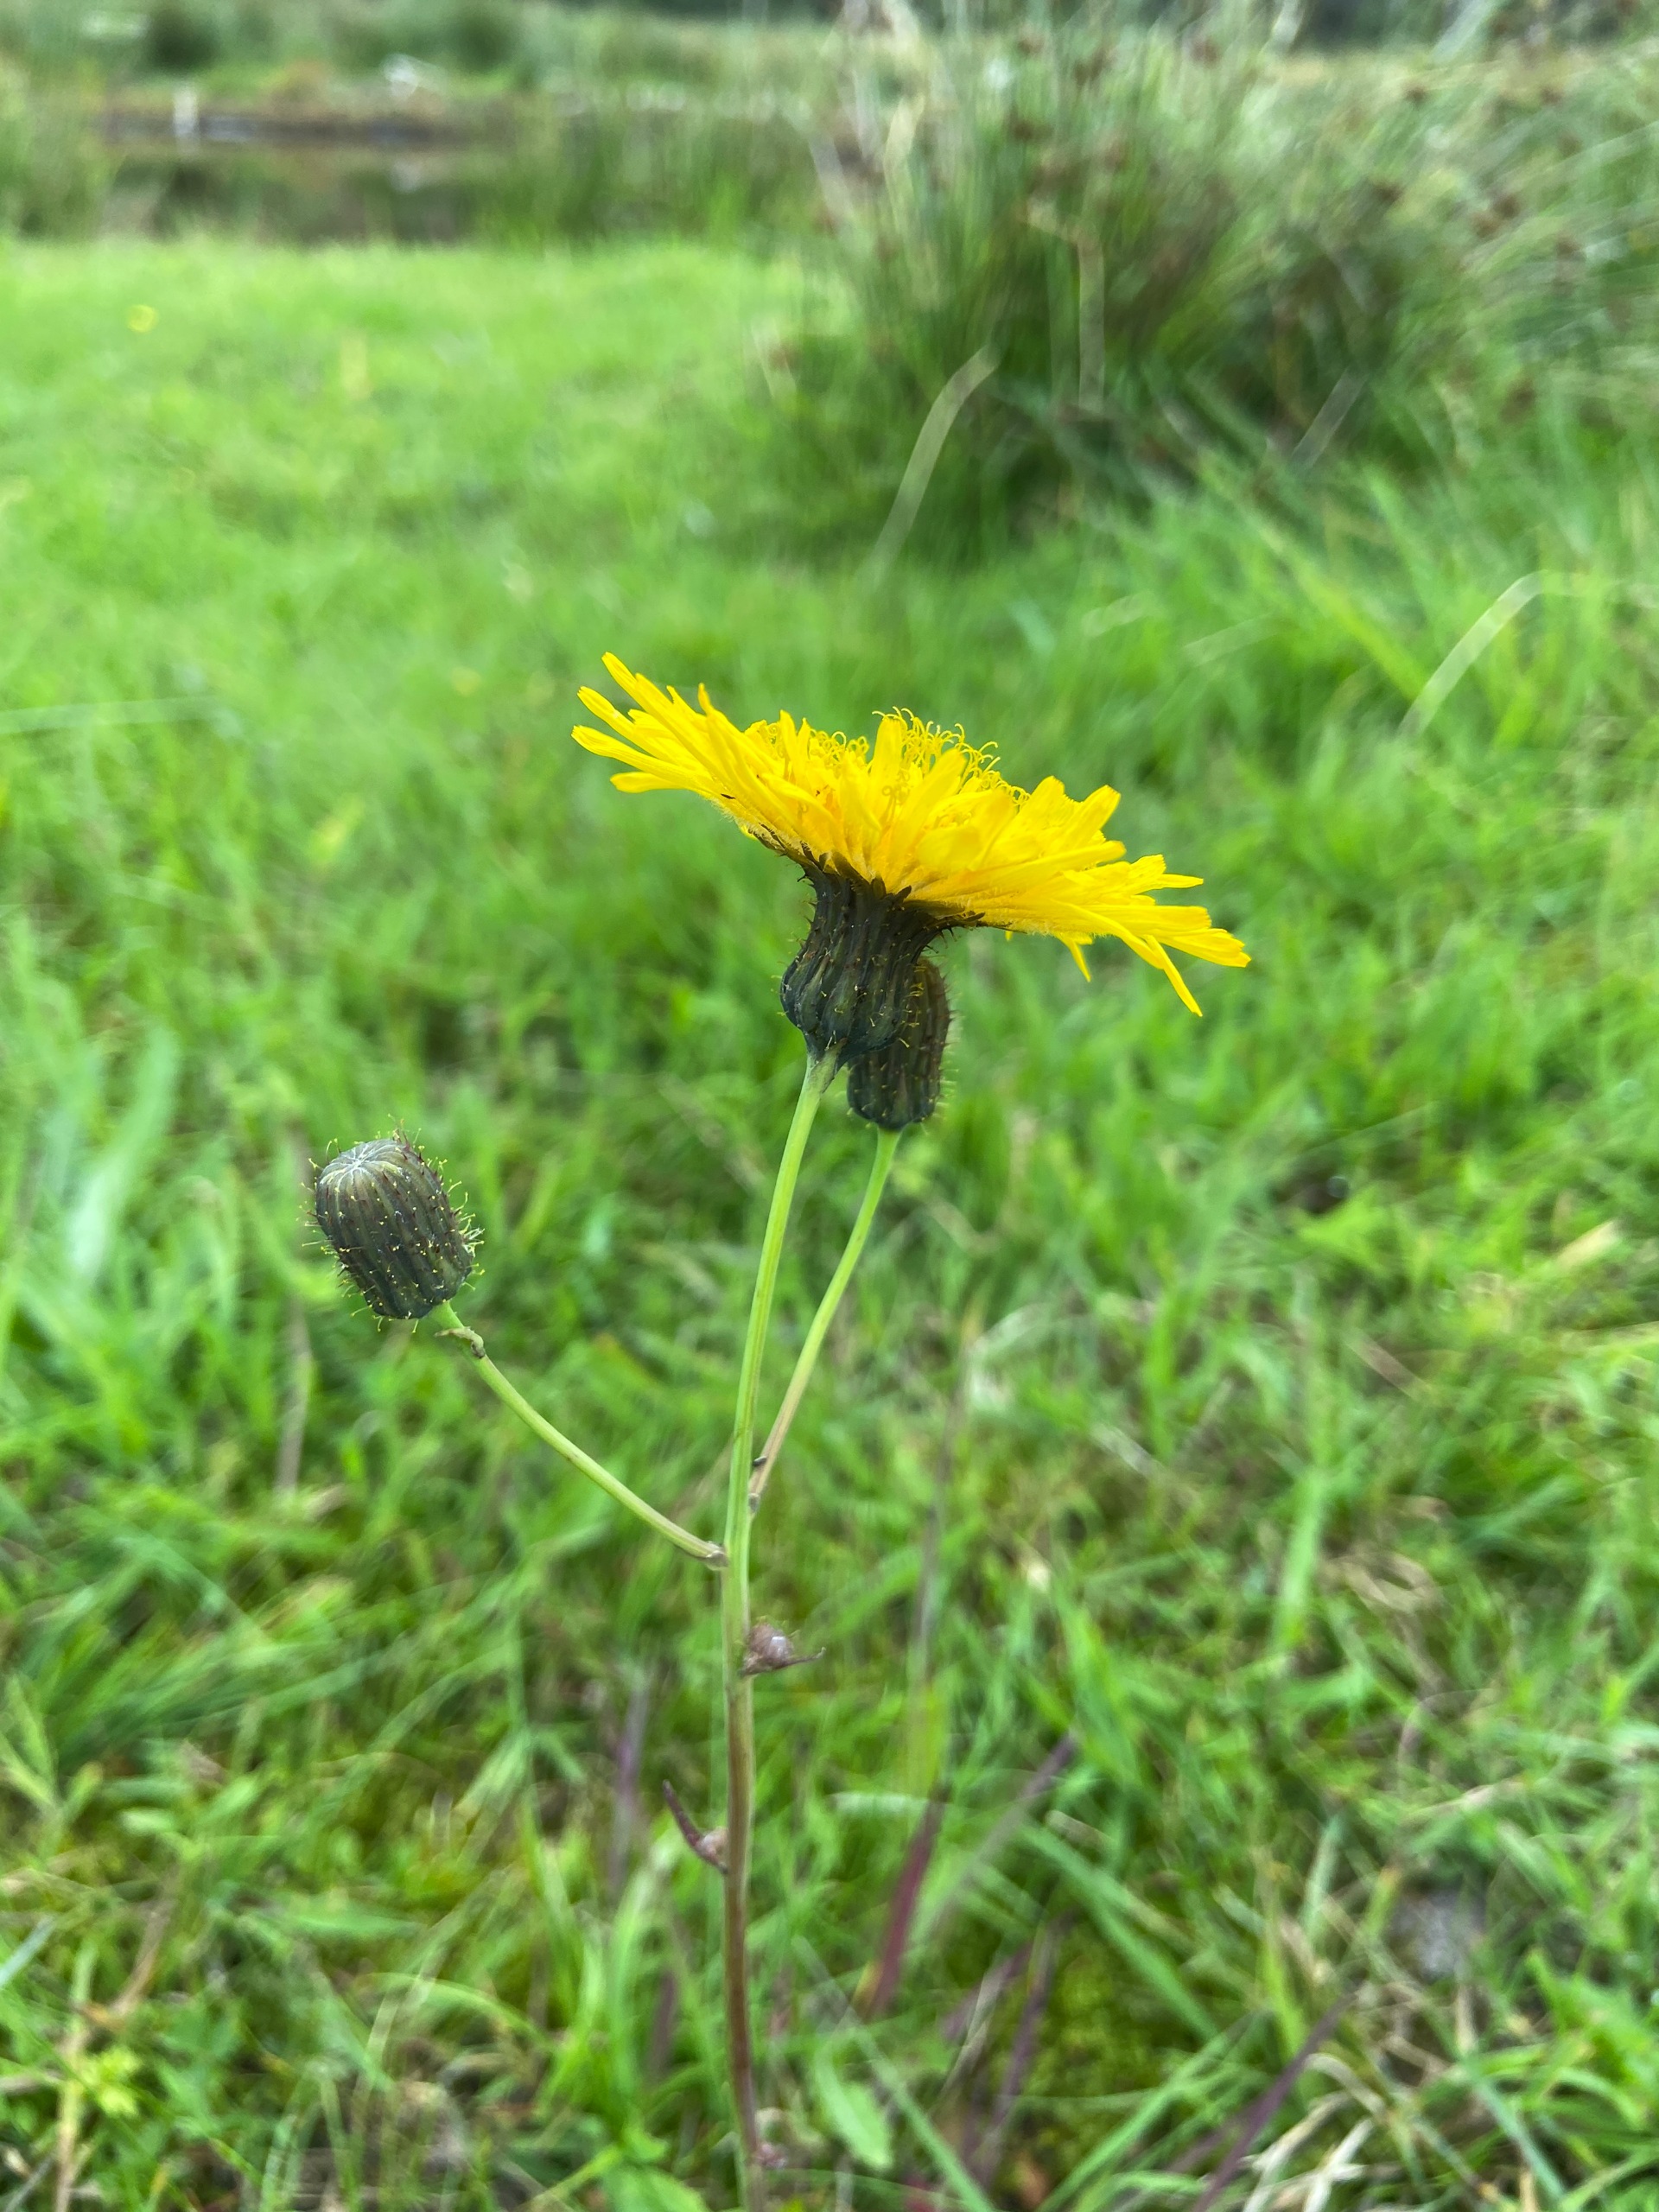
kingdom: Plantae
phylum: Tracheophyta
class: Magnoliopsida
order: Asterales
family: Asteraceae
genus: Sonchus
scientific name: Sonchus arvensis
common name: Ager-svinemælk
